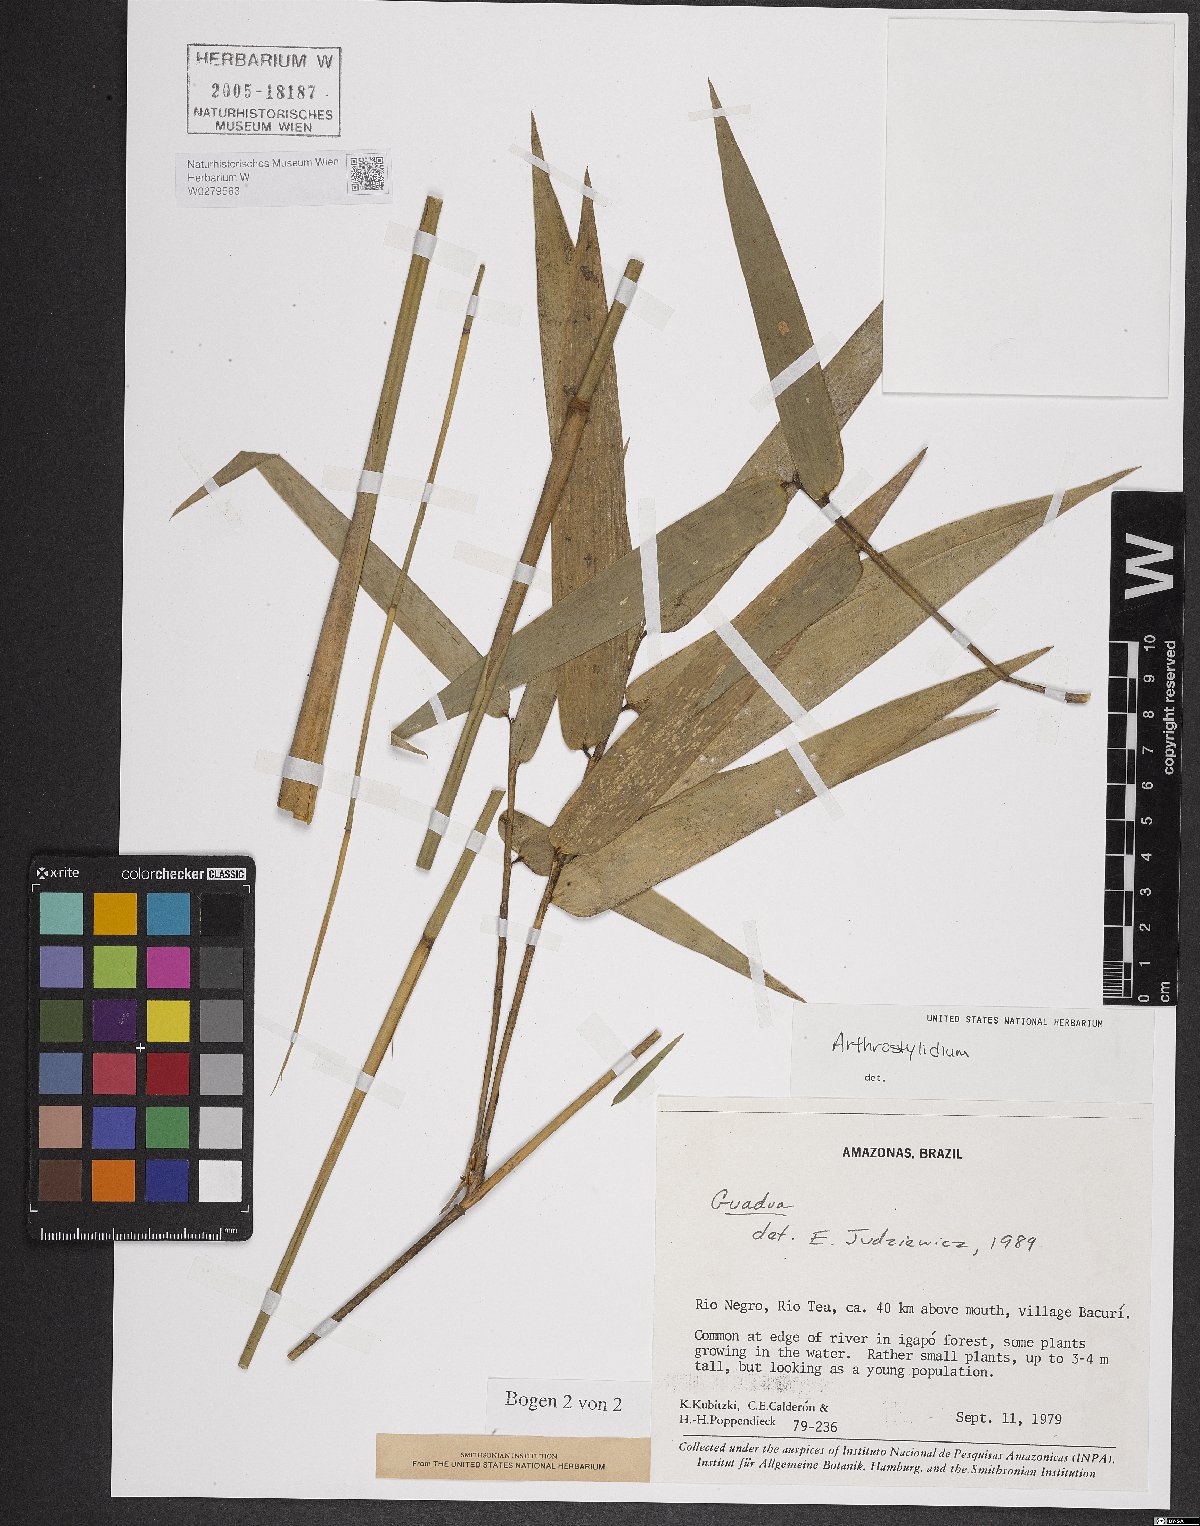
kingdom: Plantae
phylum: Tracheophyta
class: Liliopsida
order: Poales
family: Poaceae
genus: Arthrostylidium
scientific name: Arthrostylidium
